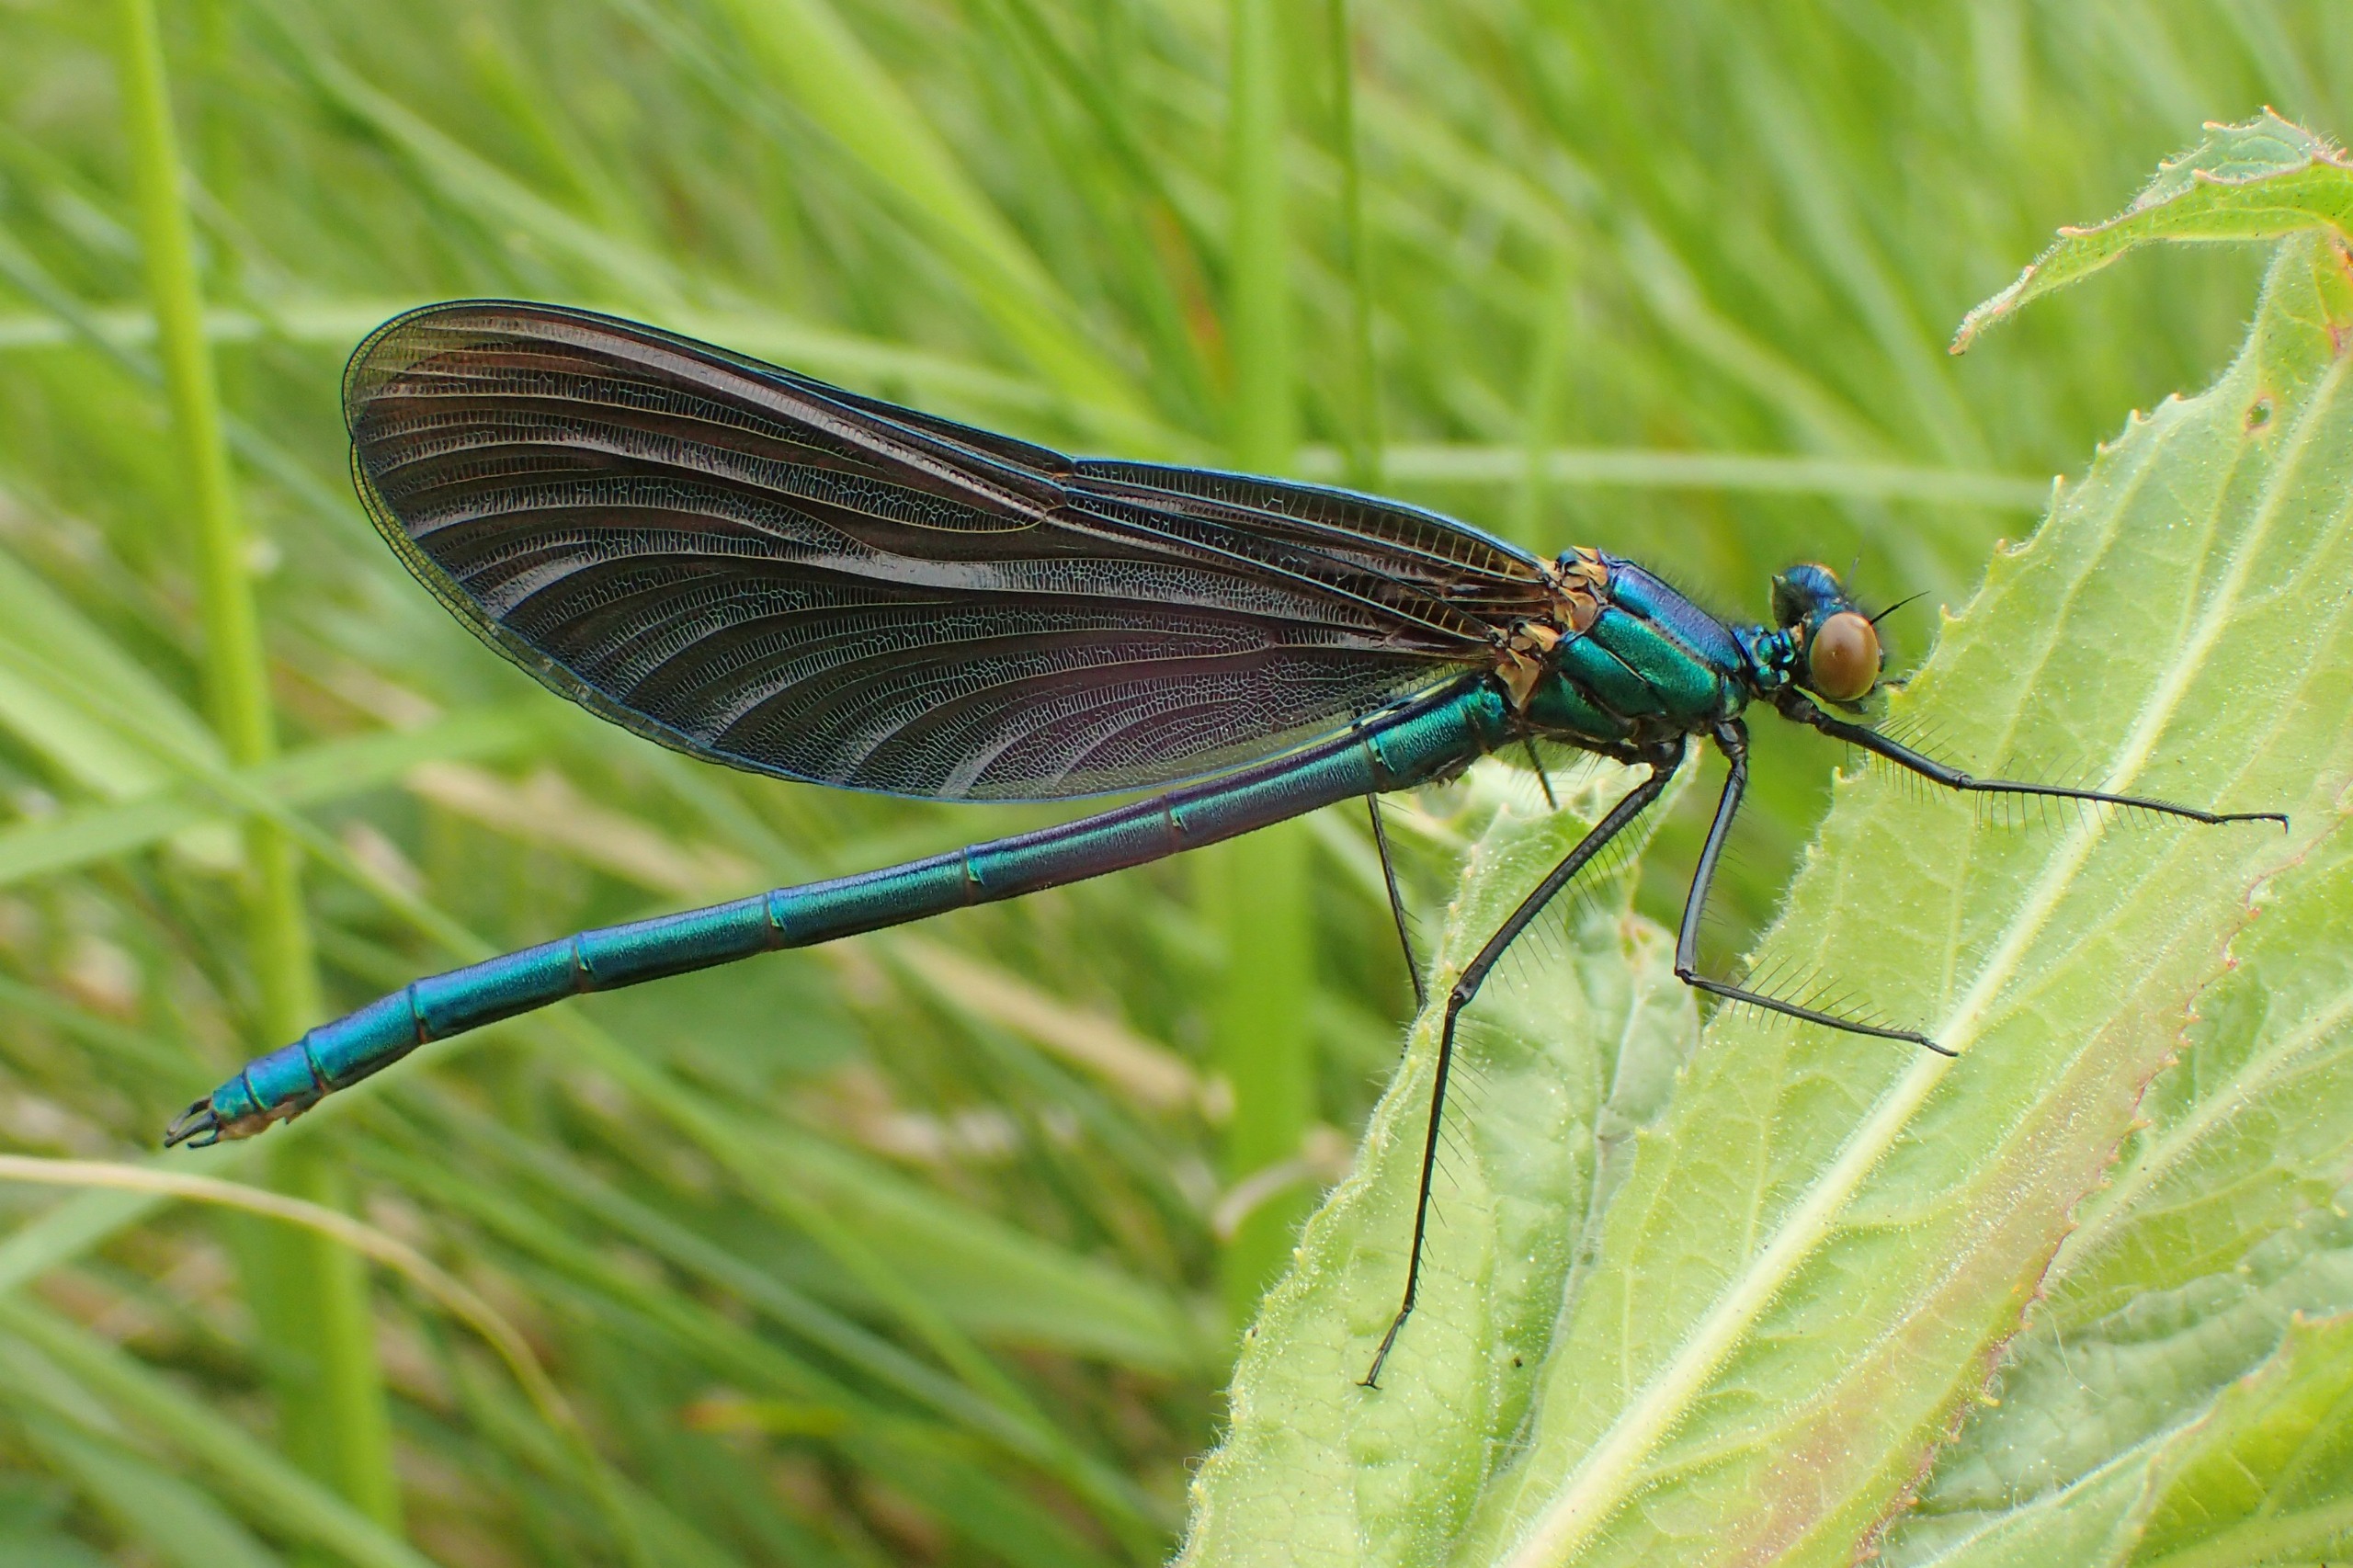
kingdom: Animalia
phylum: Arthropoda
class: Insecta
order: Odonata
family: Calopterygidae
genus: Calopteryx
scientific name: Calopteryx virgo
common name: Blåvinget pragtvandnymfe
